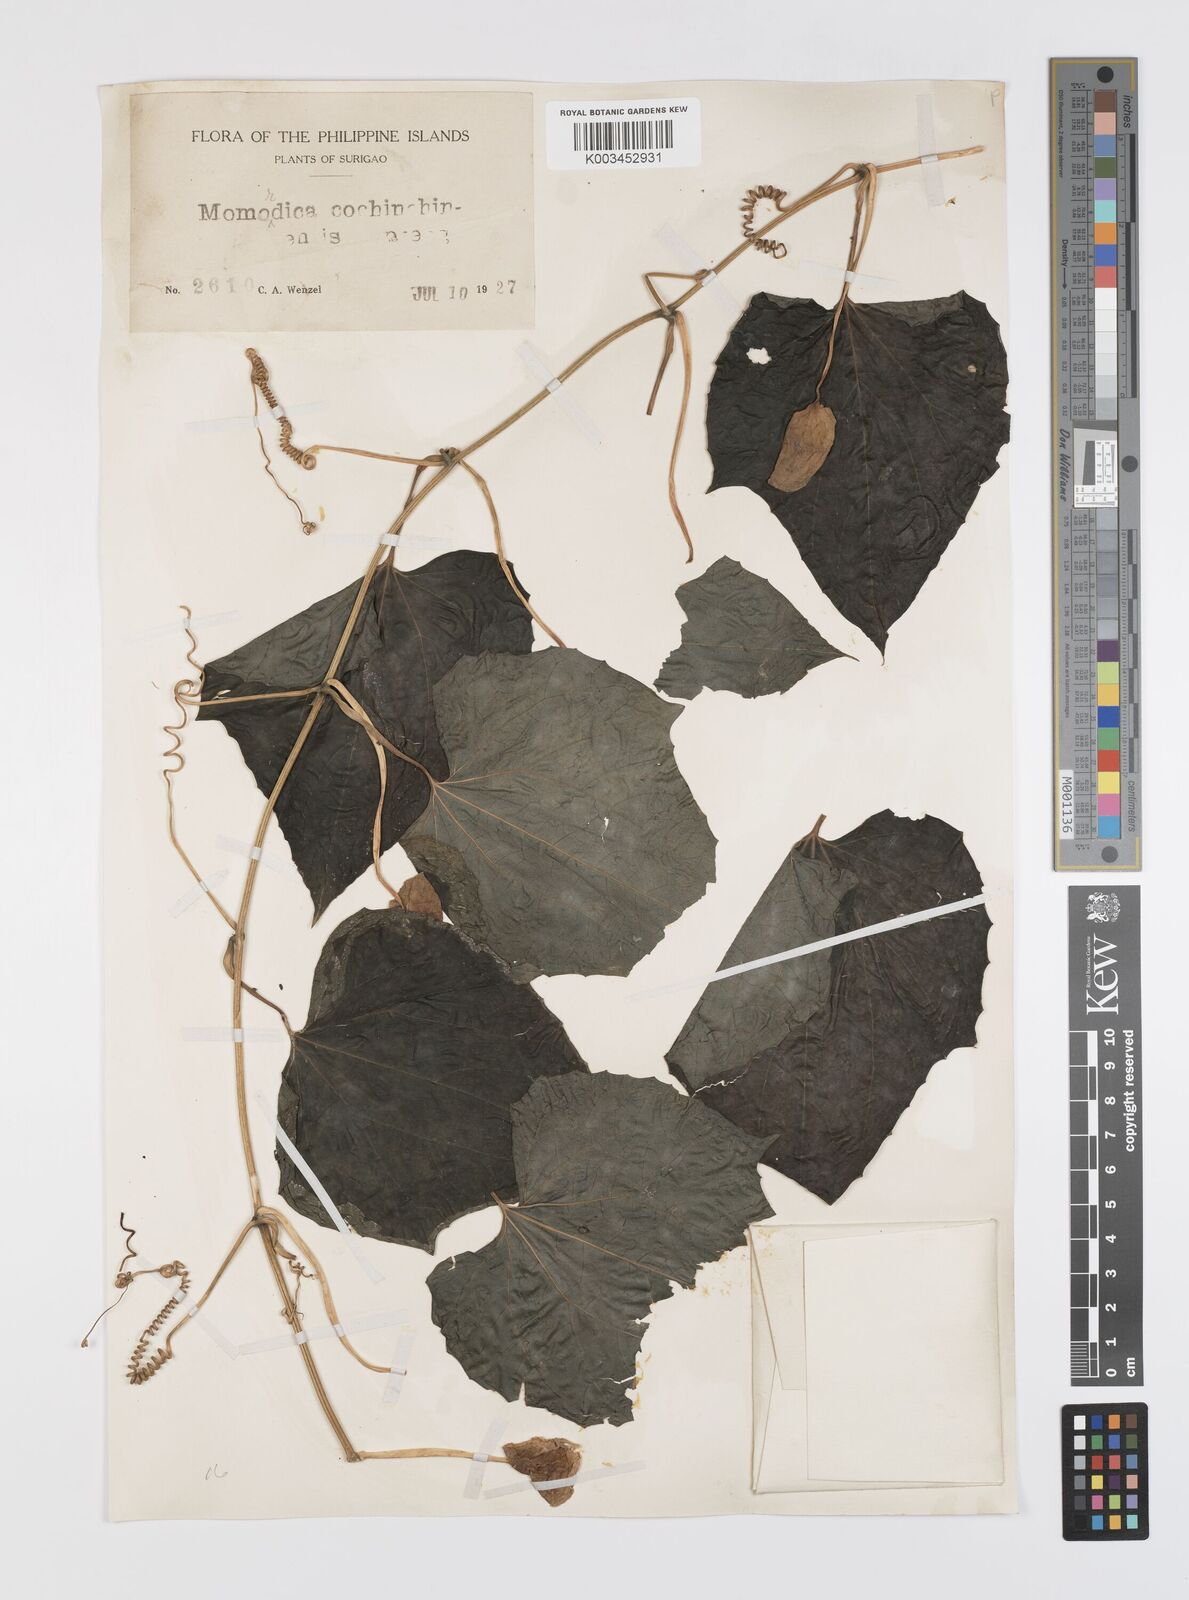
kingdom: Plantae
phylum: Tracheophyta
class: Magnoliopsida
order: Cucurbitales
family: Cucurbitaceae
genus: Momordica
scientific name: Momordica cochinchinensis
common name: Chinese bitter-cucumber
